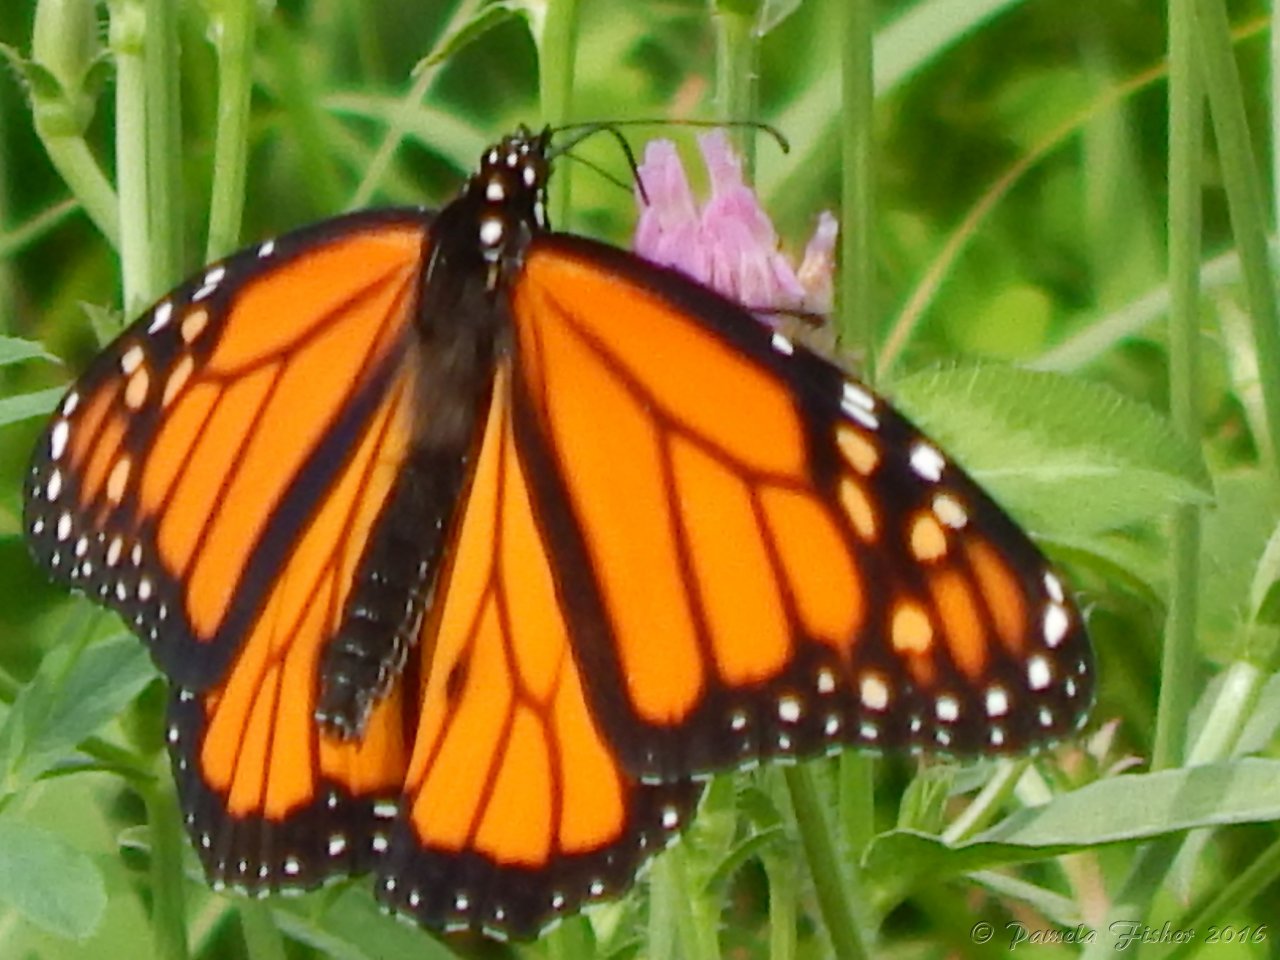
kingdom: Animalia
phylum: Arthropoda
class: Insecta
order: Lepidoptera
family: Nymphalidae
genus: Danaus
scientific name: Danaus plexippus
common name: Monarch
